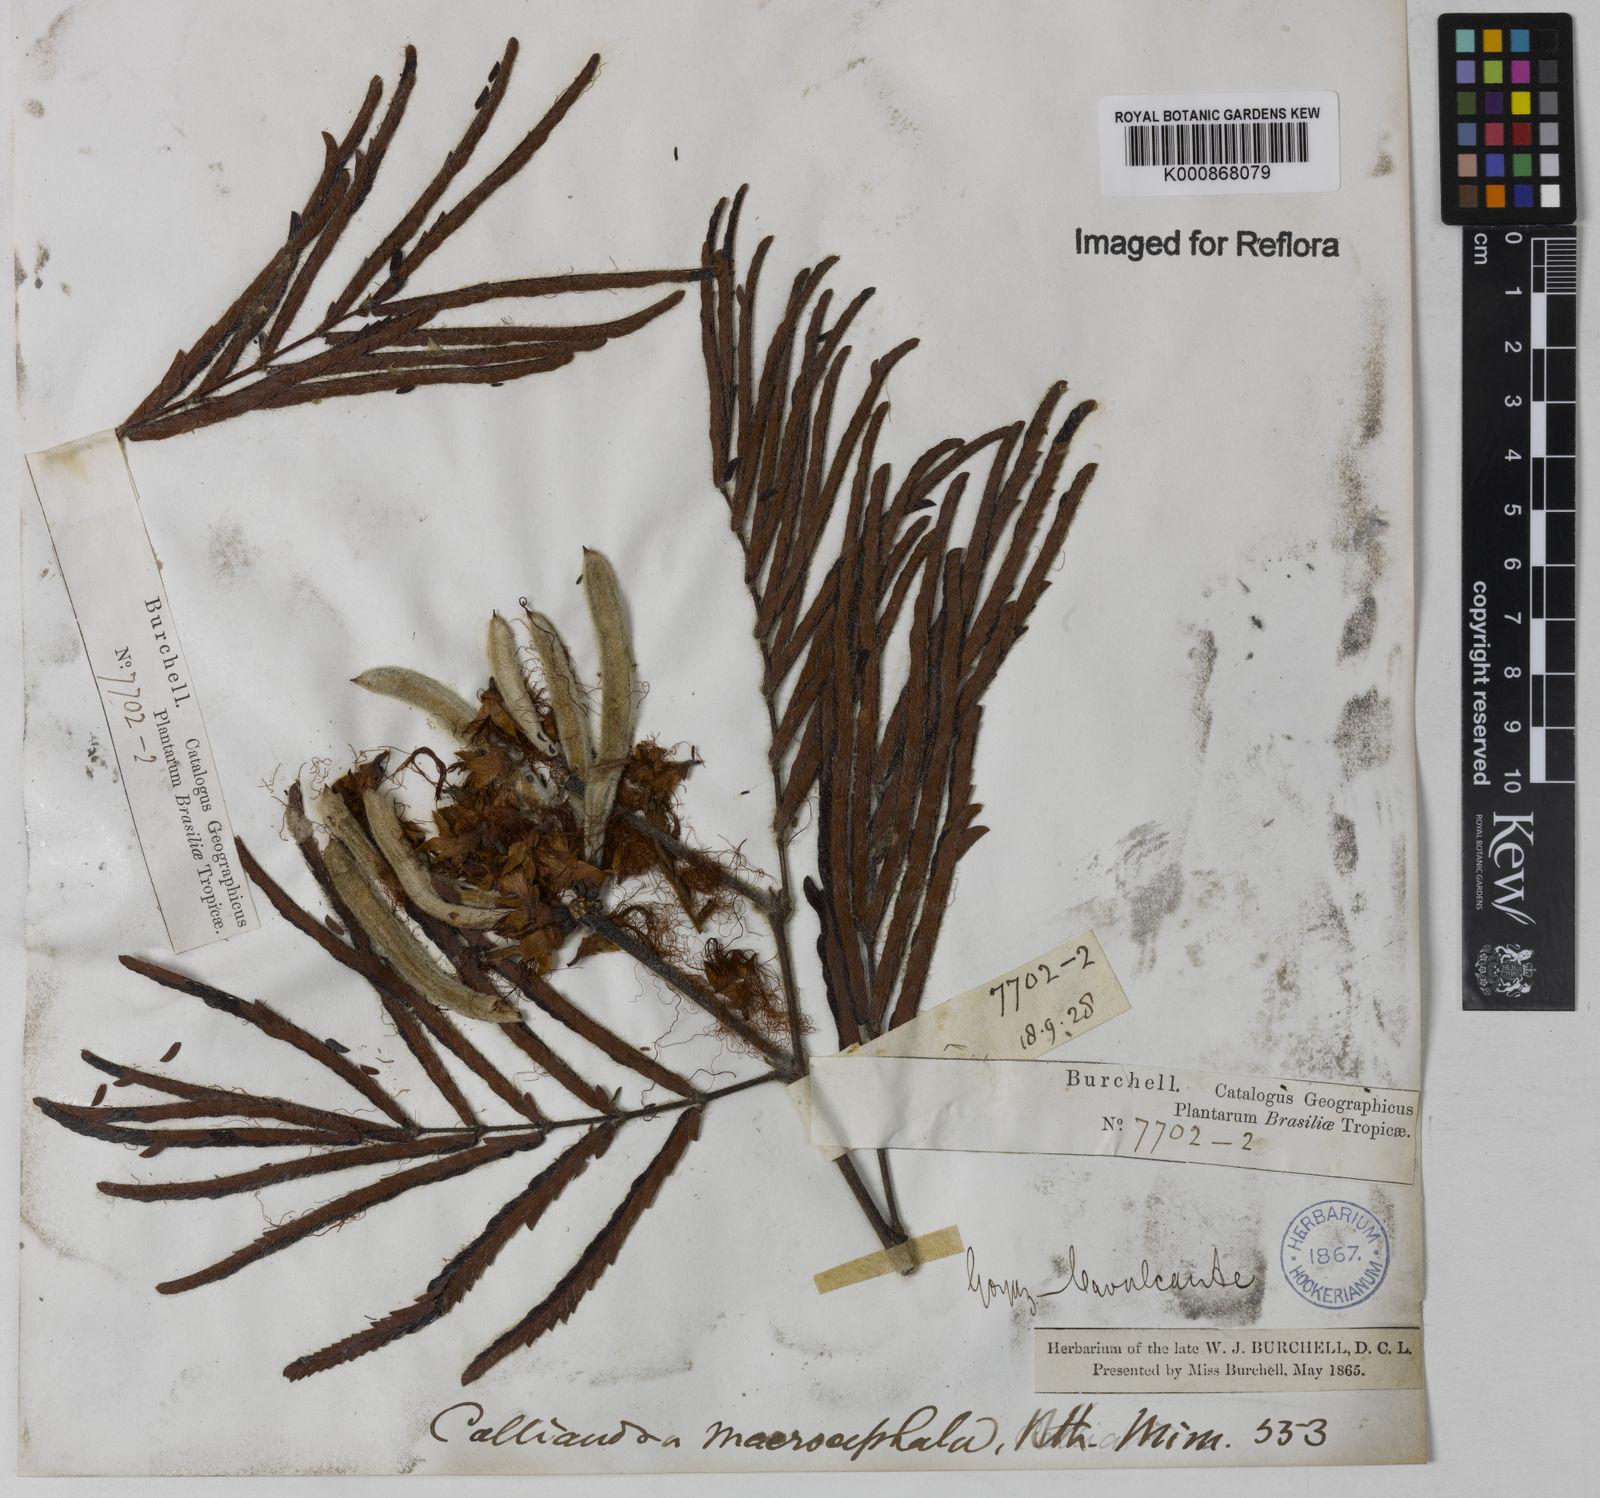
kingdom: Plantae
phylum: Tracheophyta
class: Magnoliopsida
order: Fabales
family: Fabaceae
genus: Calliandra
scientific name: Calliandra dysantha
